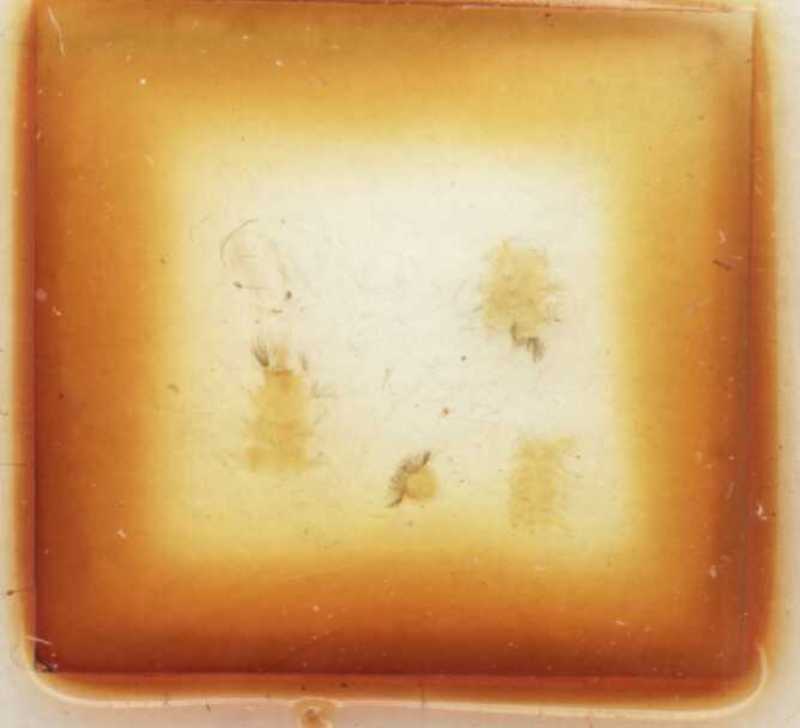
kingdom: Animalia
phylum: Arthropoda
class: Diplopoda
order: Polyxenida
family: Lophoproctidae
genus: Lophoproctus
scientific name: Lophoproctus lucidus
